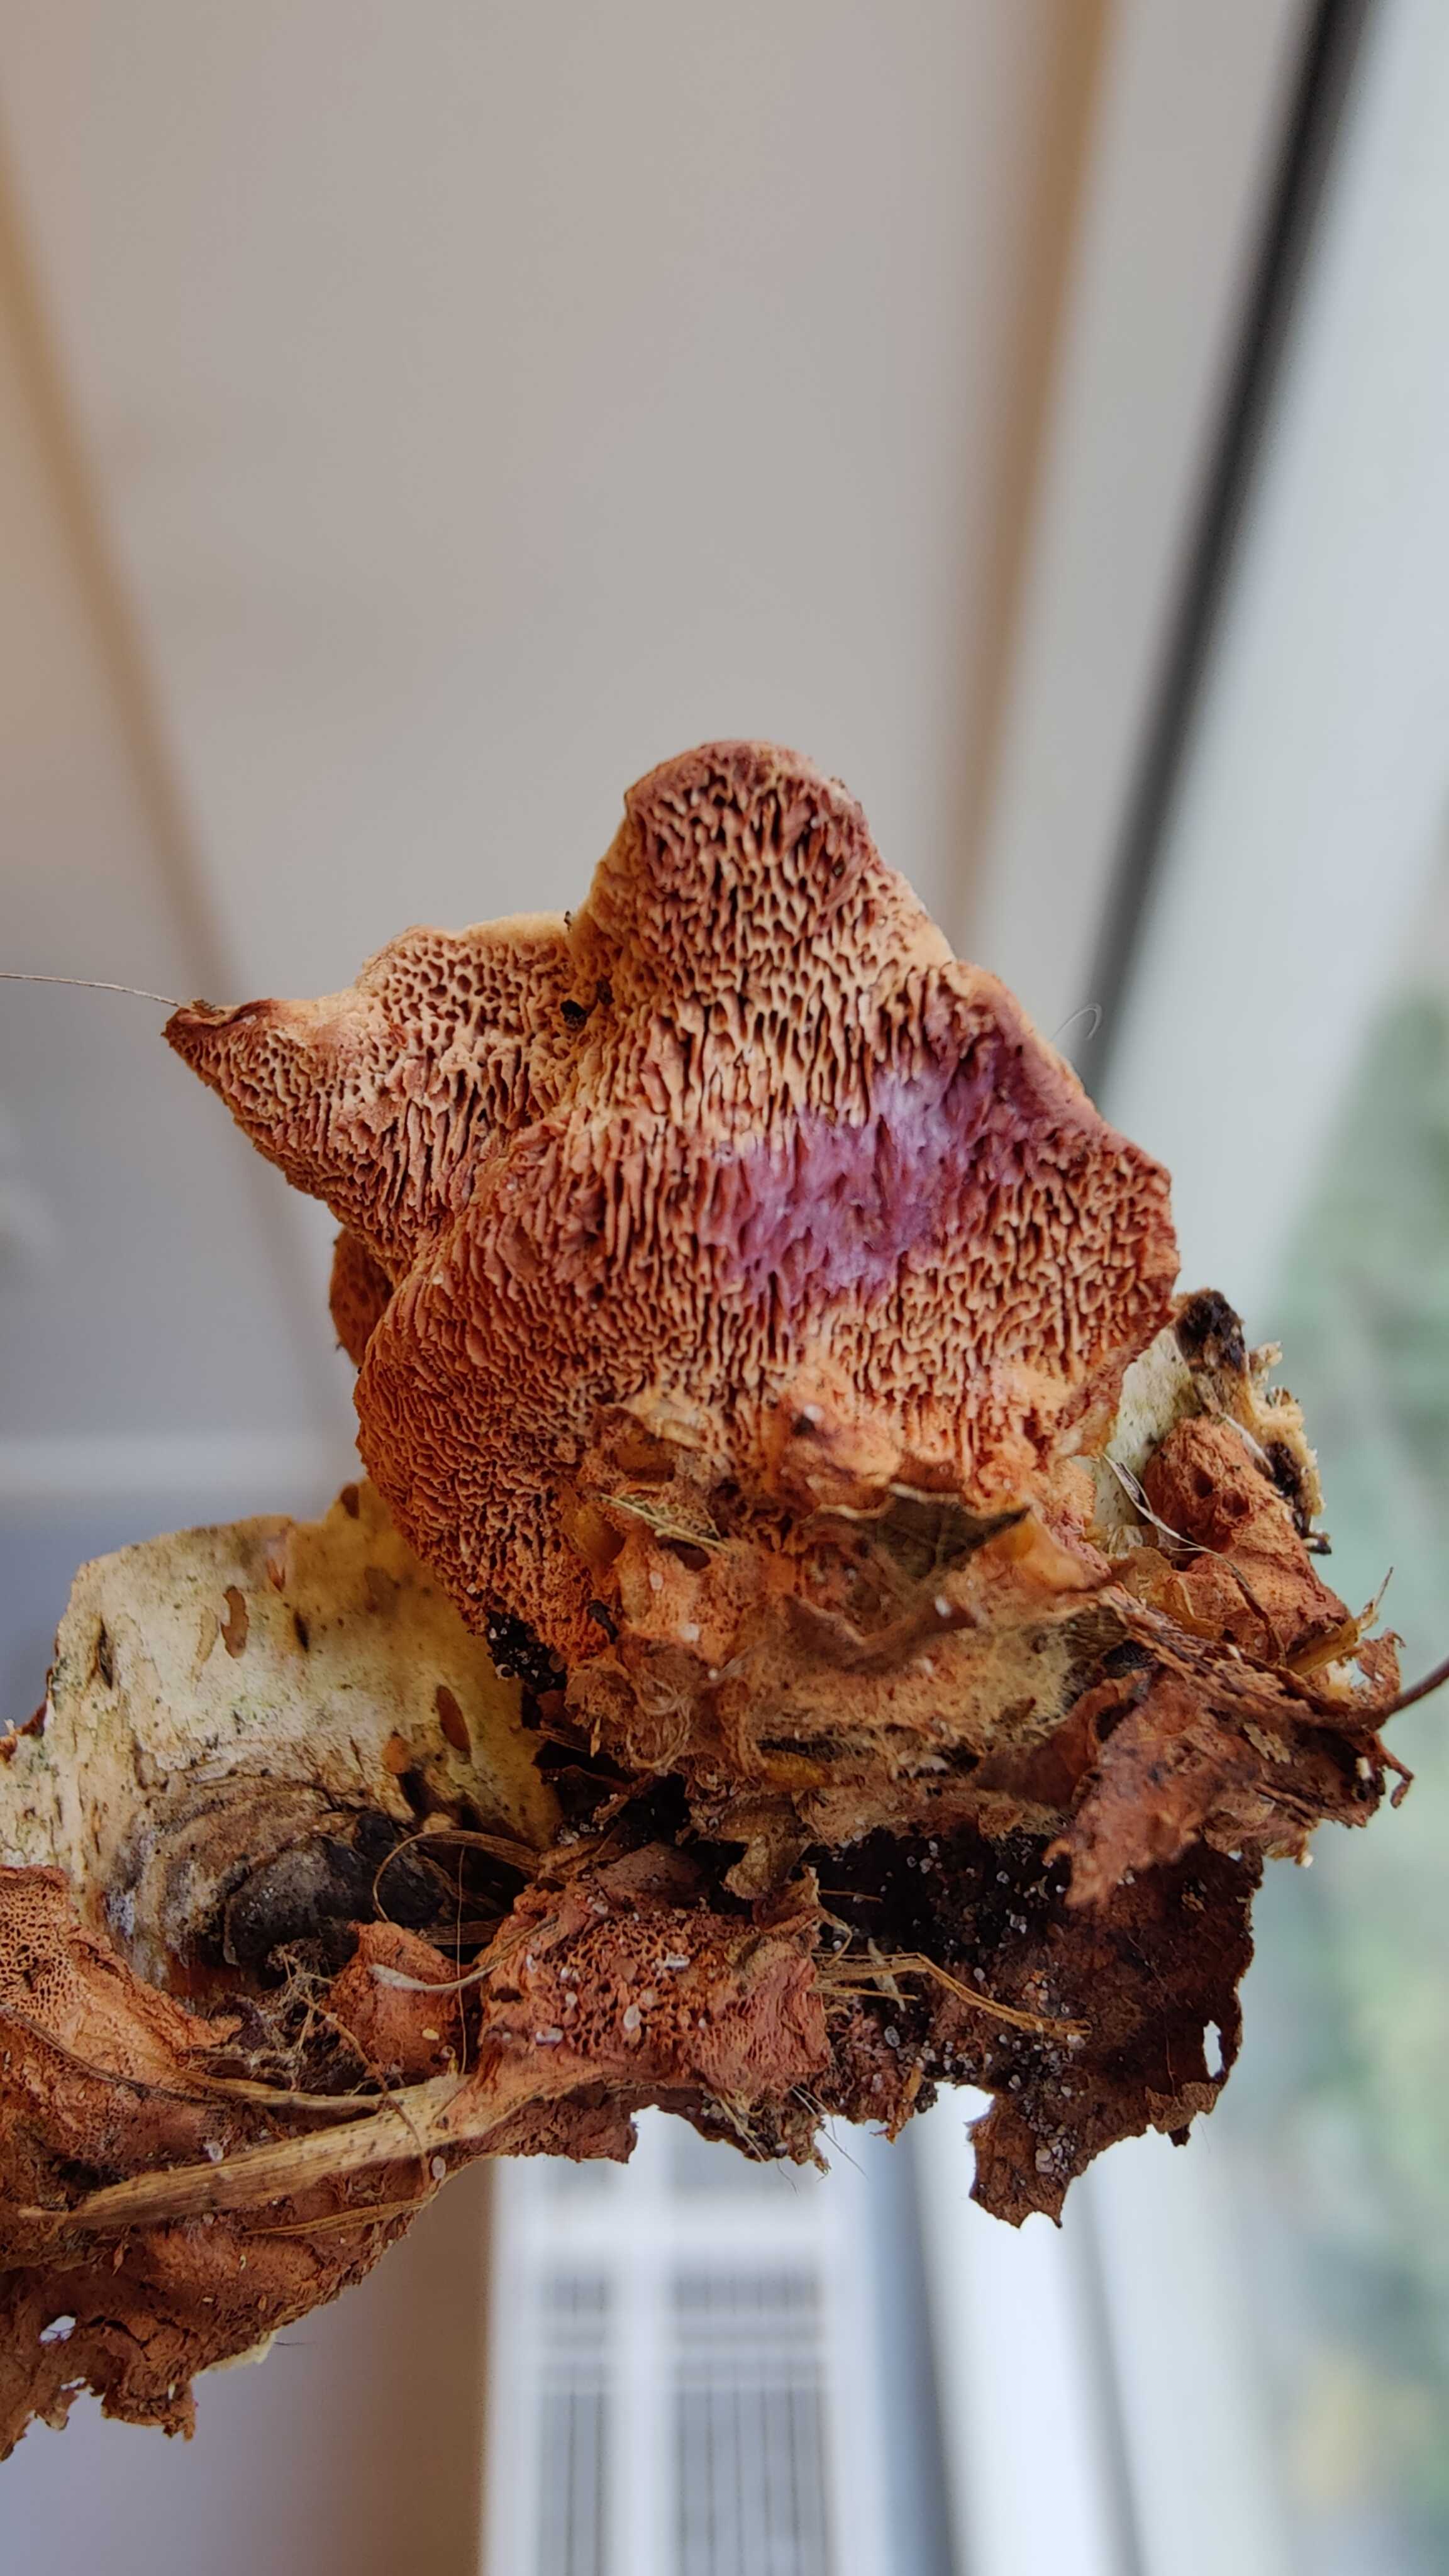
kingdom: Fungi
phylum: Basidiomycota
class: Agaricomycetes
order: Polyporales
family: Phanerochaetaceae
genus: Hapalopilus
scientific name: Hapalopilus rutilans
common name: rødlig okkerporesvamp
